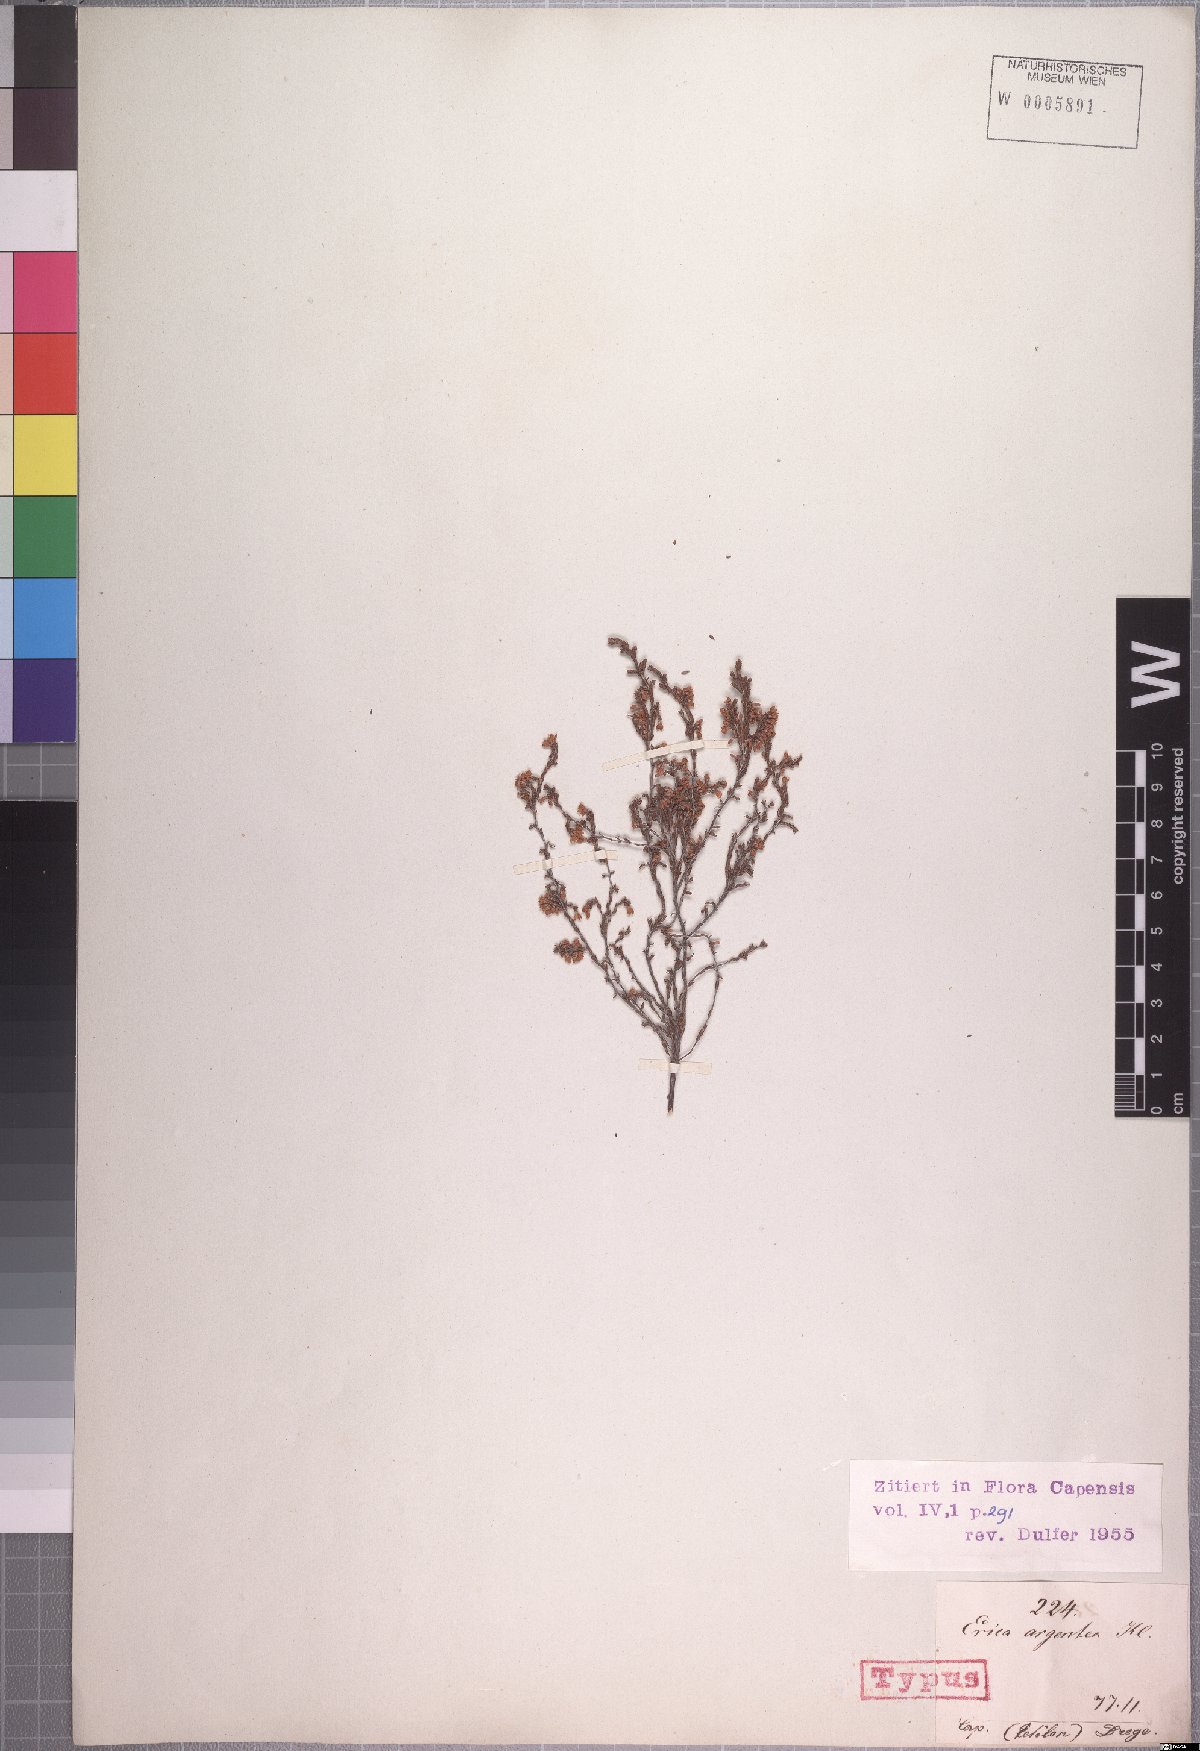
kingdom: Plantae
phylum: Tracheophyta
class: Magnoliopsida
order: Ericales
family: Ericaceae
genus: Erica
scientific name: Erica argentea
